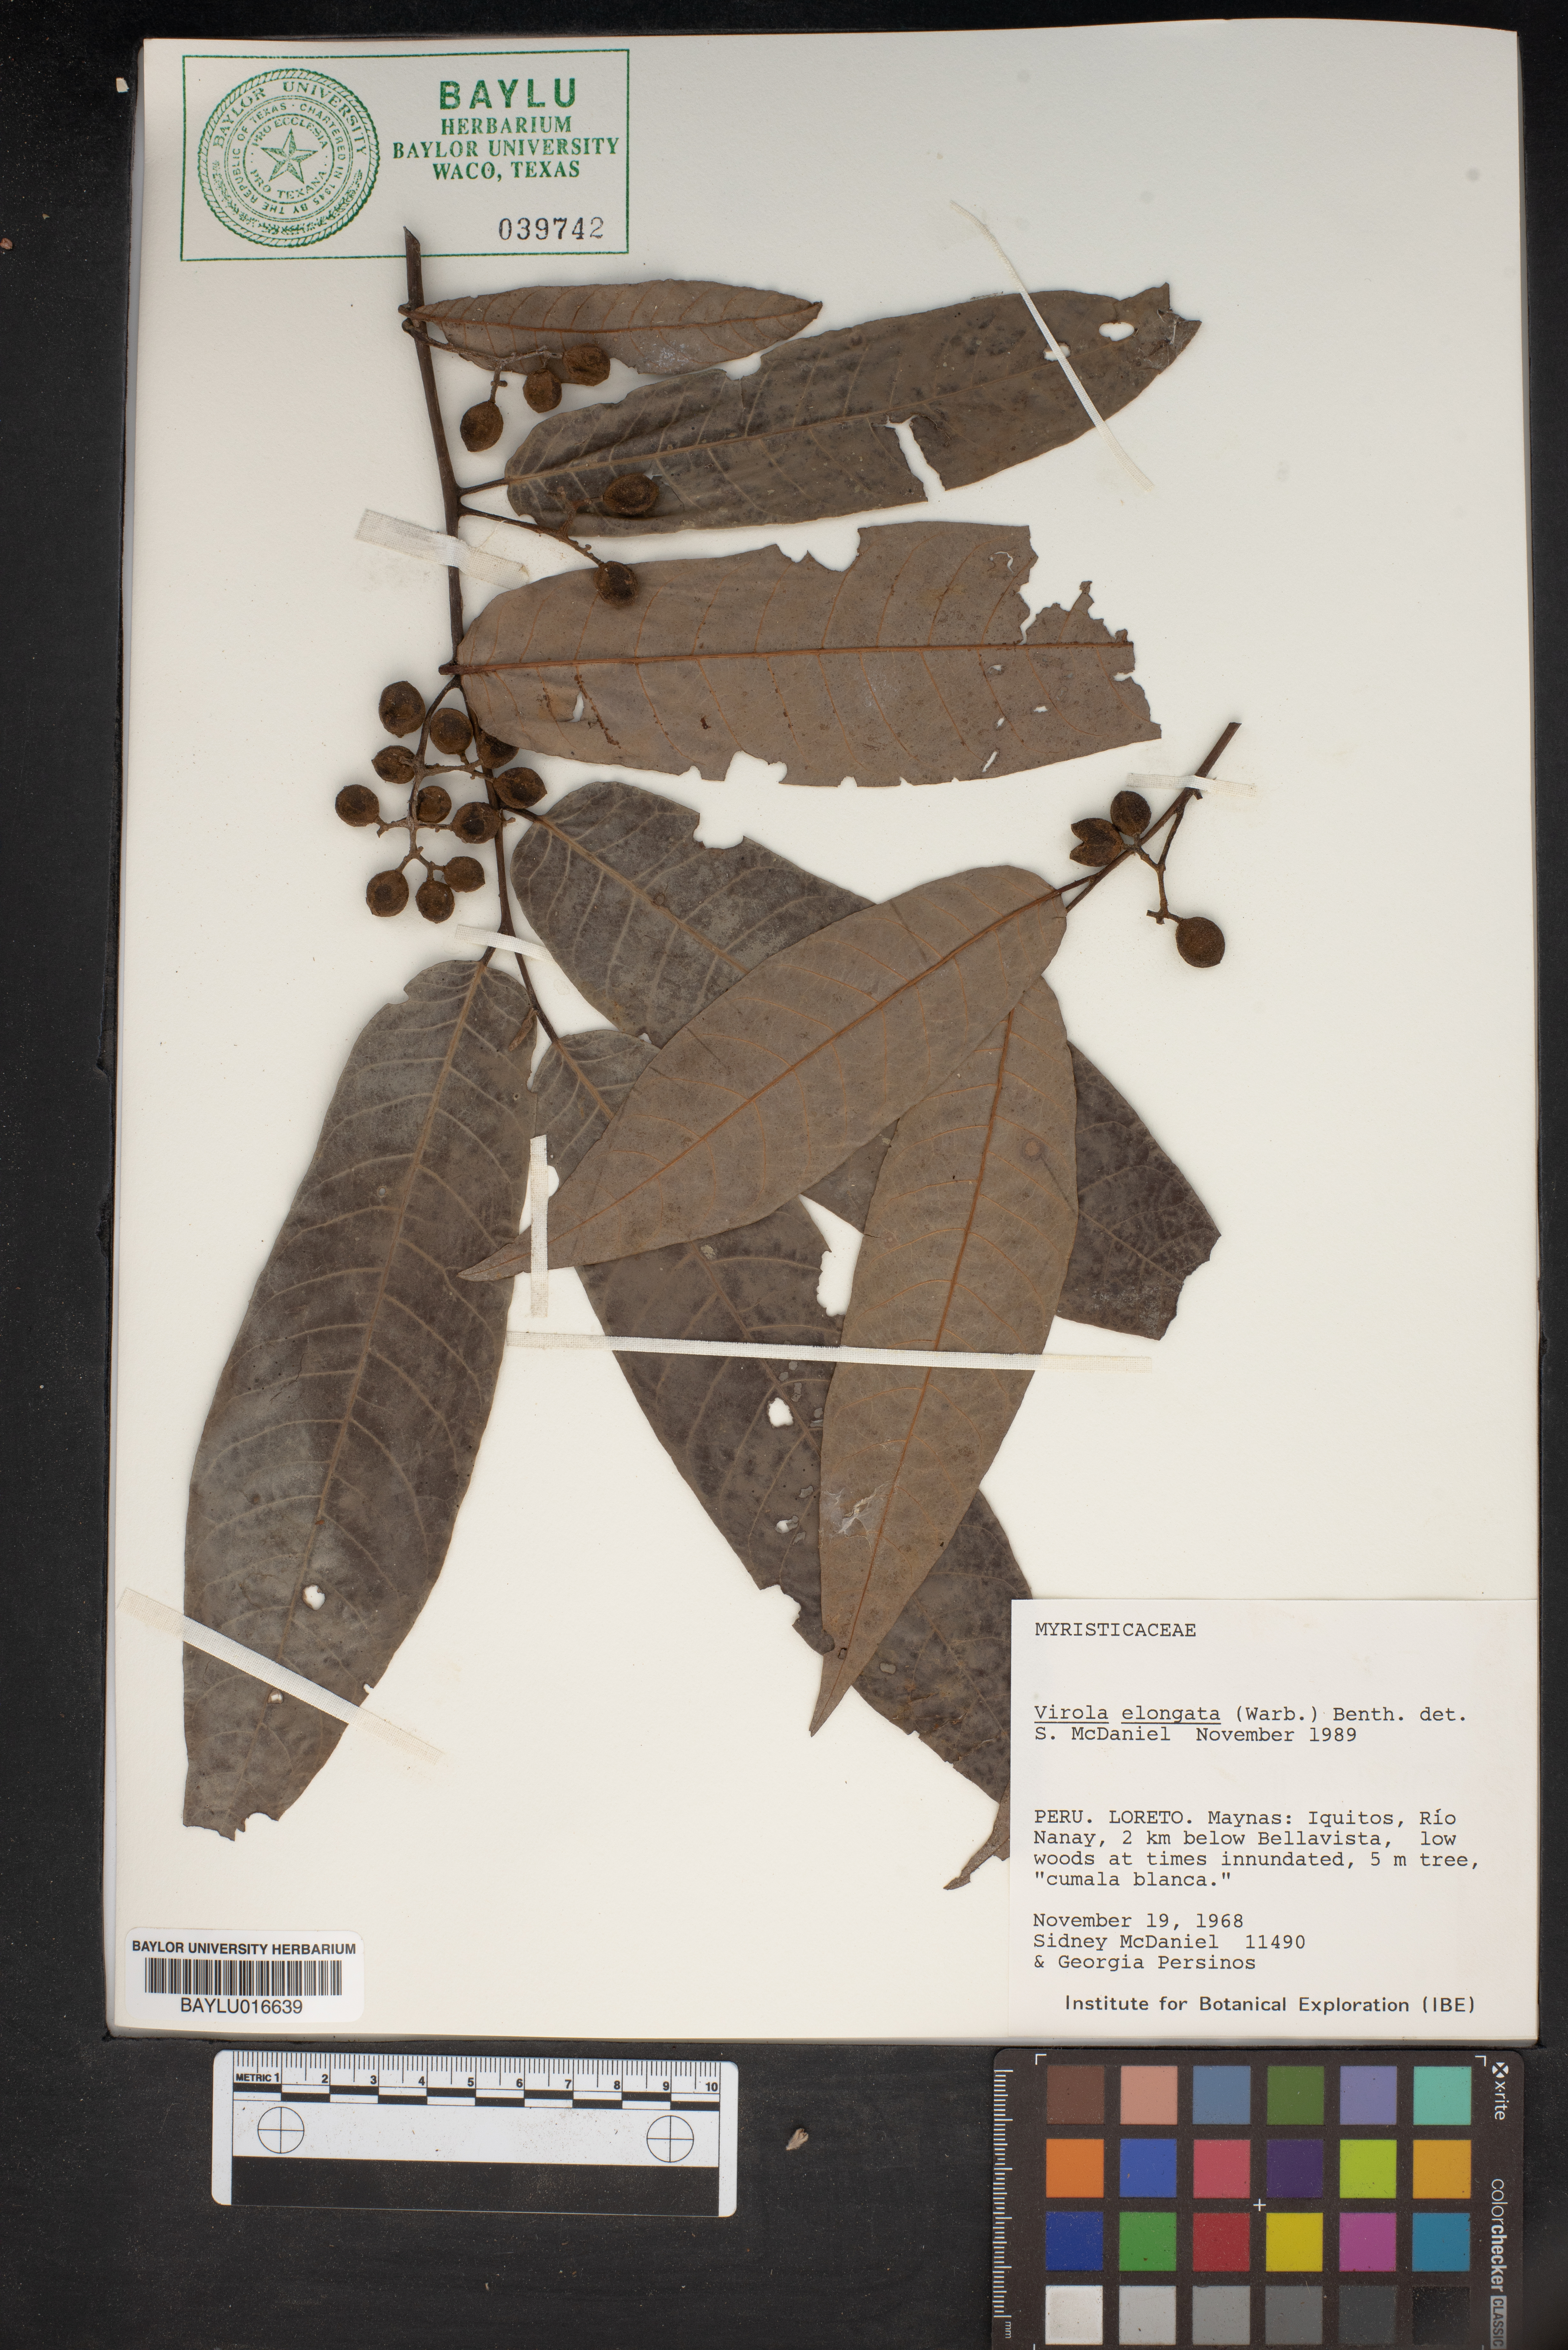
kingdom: Plantae
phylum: Tracheophyta
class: Magnoliopsida
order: Magnoliales
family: Myristicaceae
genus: Virola
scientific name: Virola elongata
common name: Sacred virola
